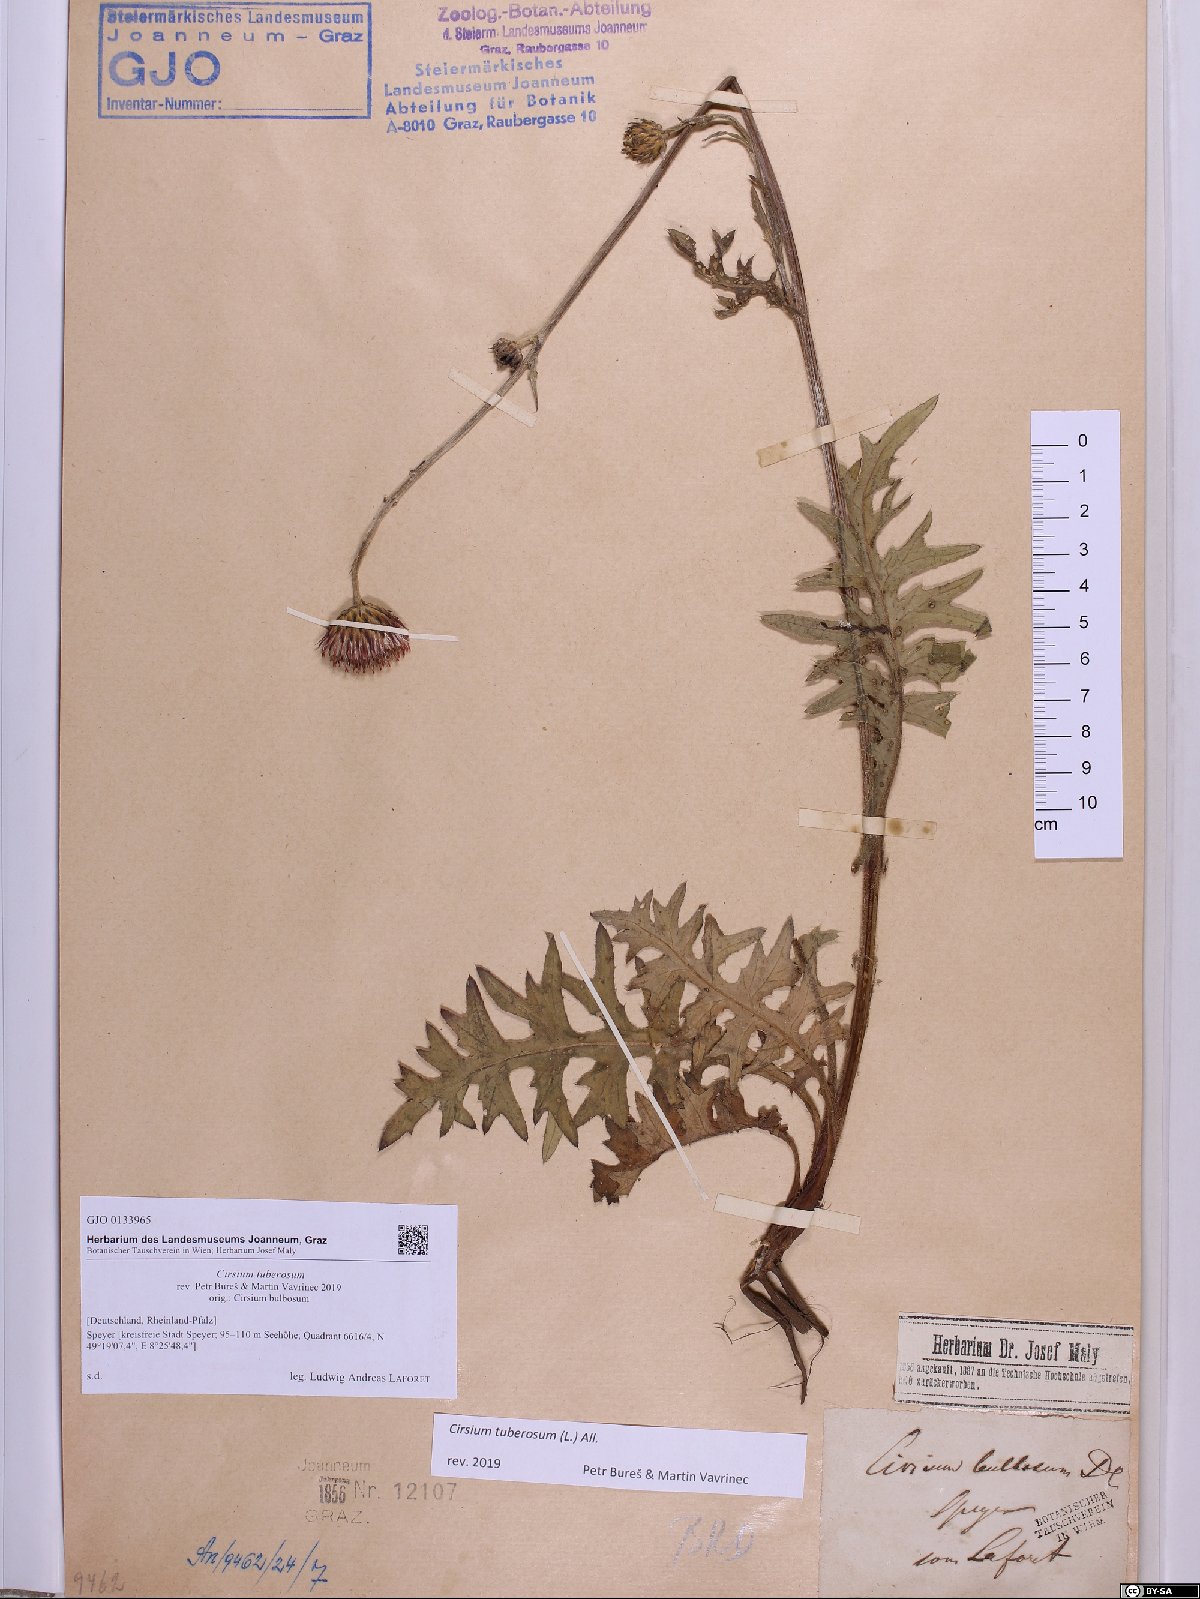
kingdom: Plantae
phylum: Tracheophyta
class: Magnoliopsida
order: Asterales
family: Asteraceae
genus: Cirsium
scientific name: Cirsium tuberosum
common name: Tuberous thistle
